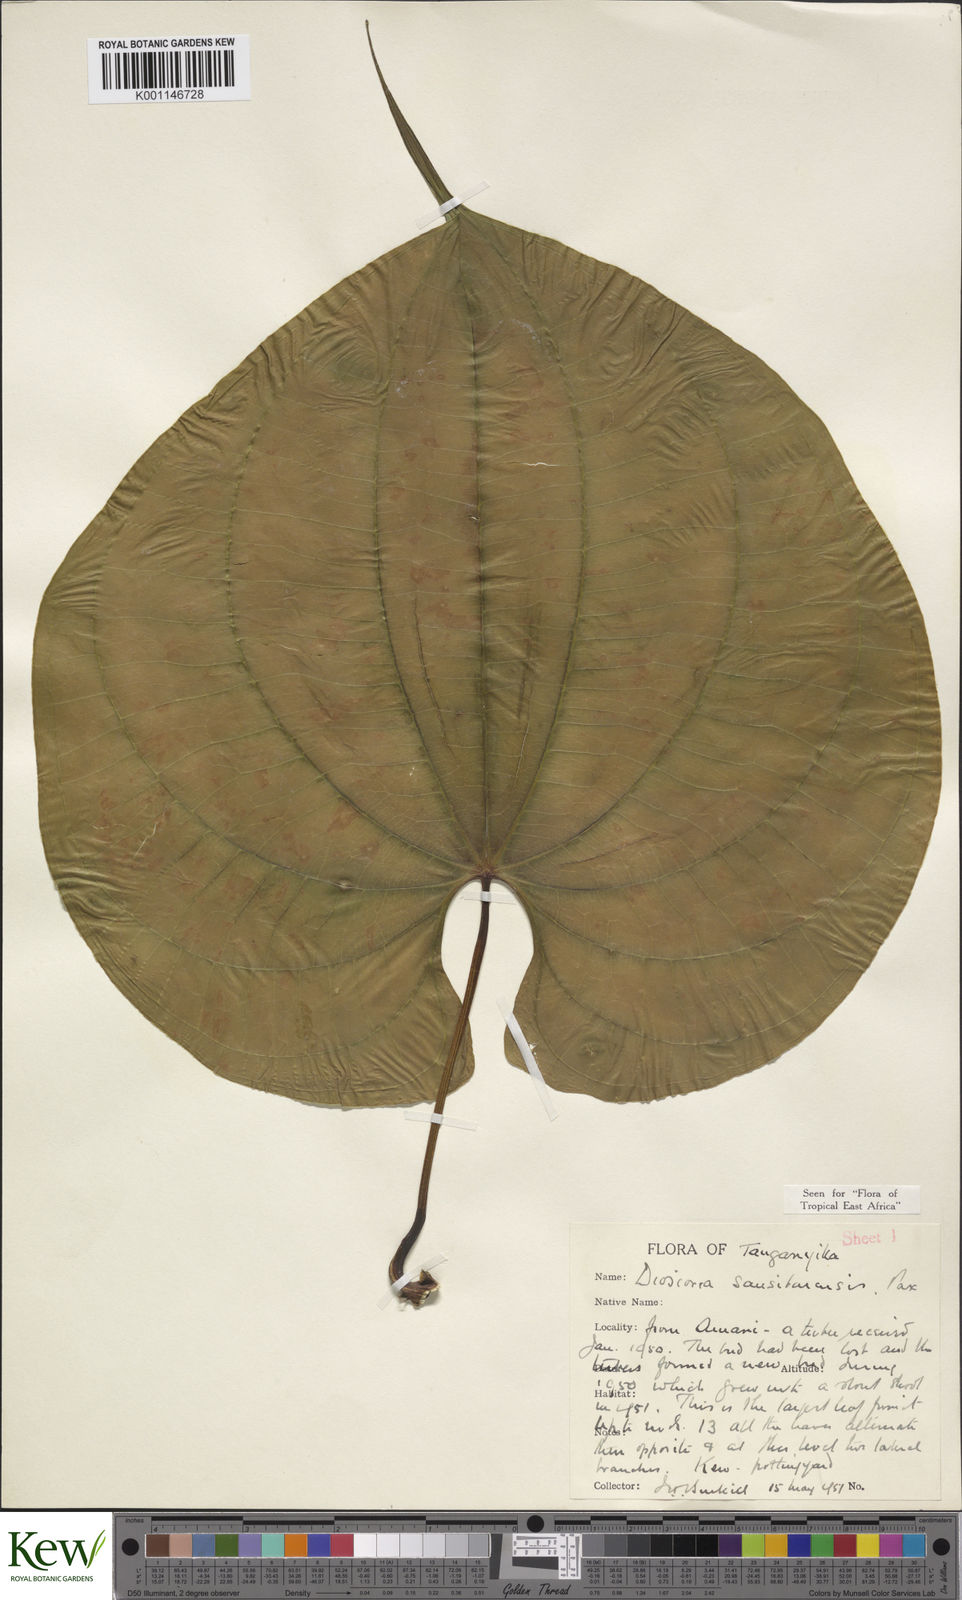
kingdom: Plantae
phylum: Tracheophyta
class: Liliopsida
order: Dioscoreales
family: Dioscoreaceae
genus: Dioscorea
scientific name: Dioscorea sansibarensis
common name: Zanzibar yam
